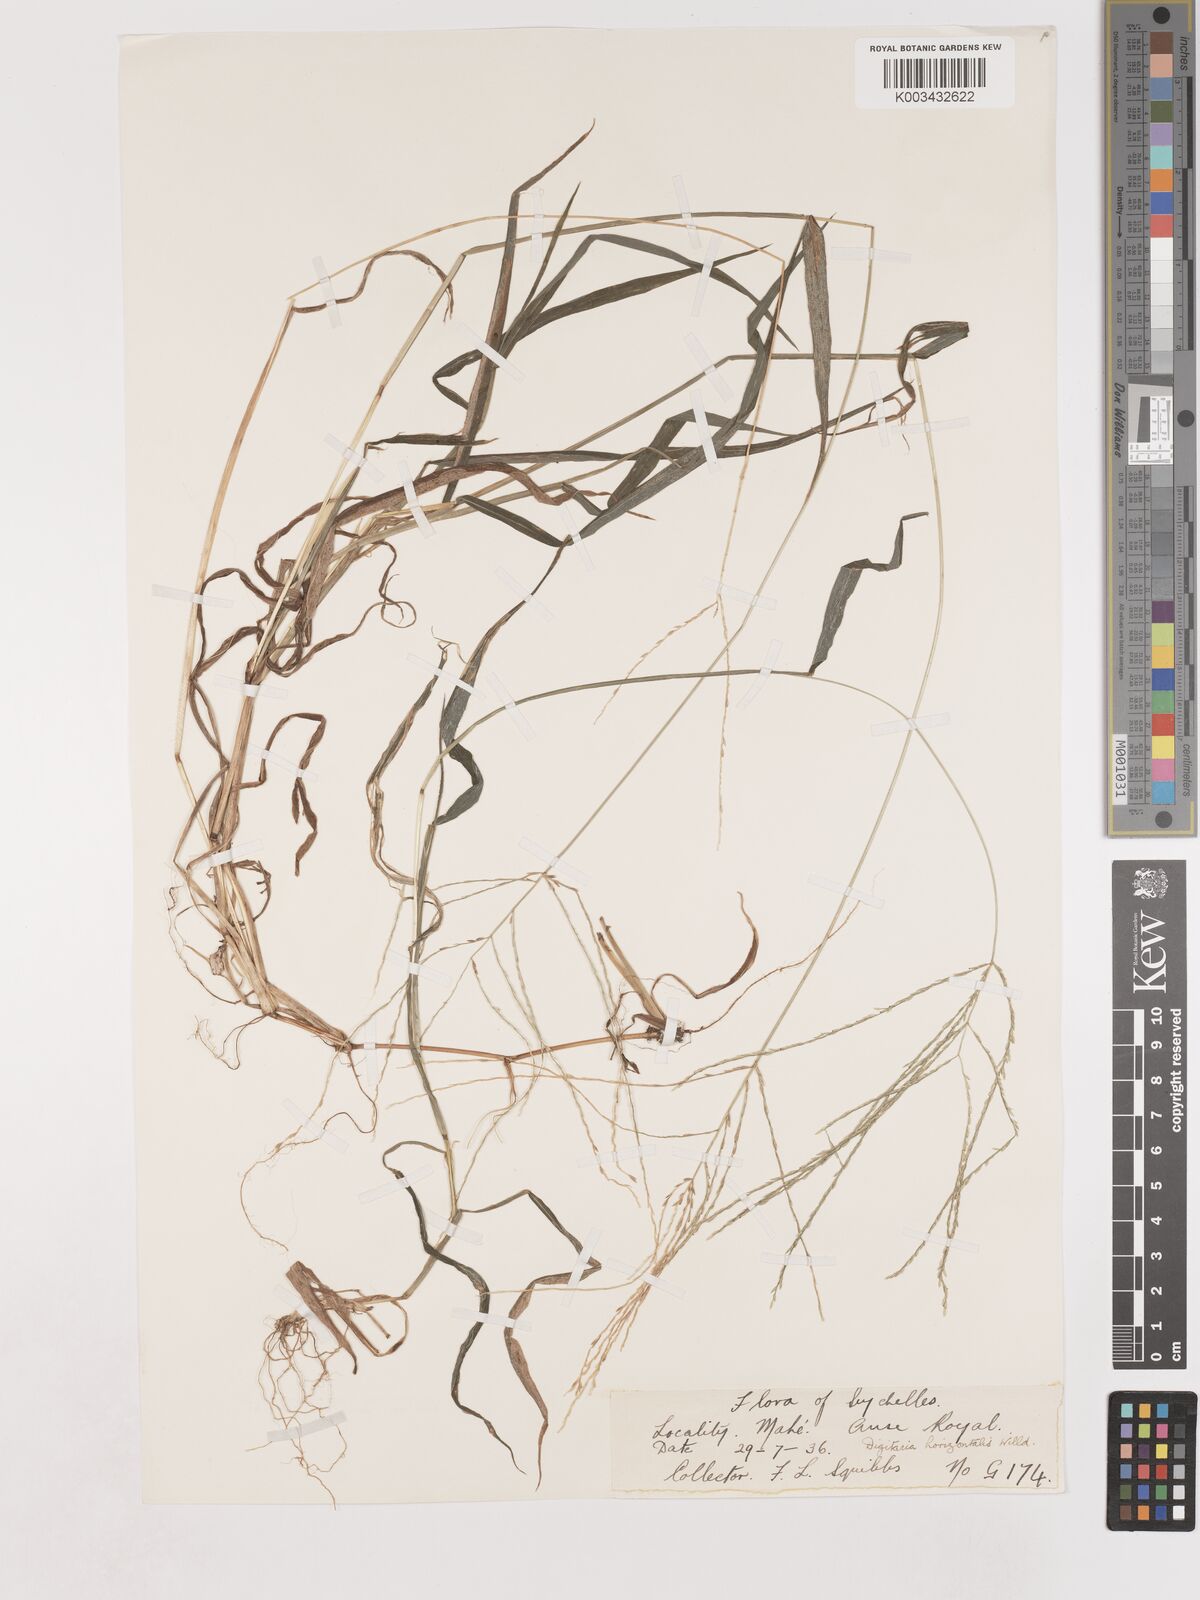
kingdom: Plantae
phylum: Tracheophyta
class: Liliopsida
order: Poales
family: Poaceae
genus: Digitaria
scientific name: Digitaria horizontalis
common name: Jamaican crabgrass
